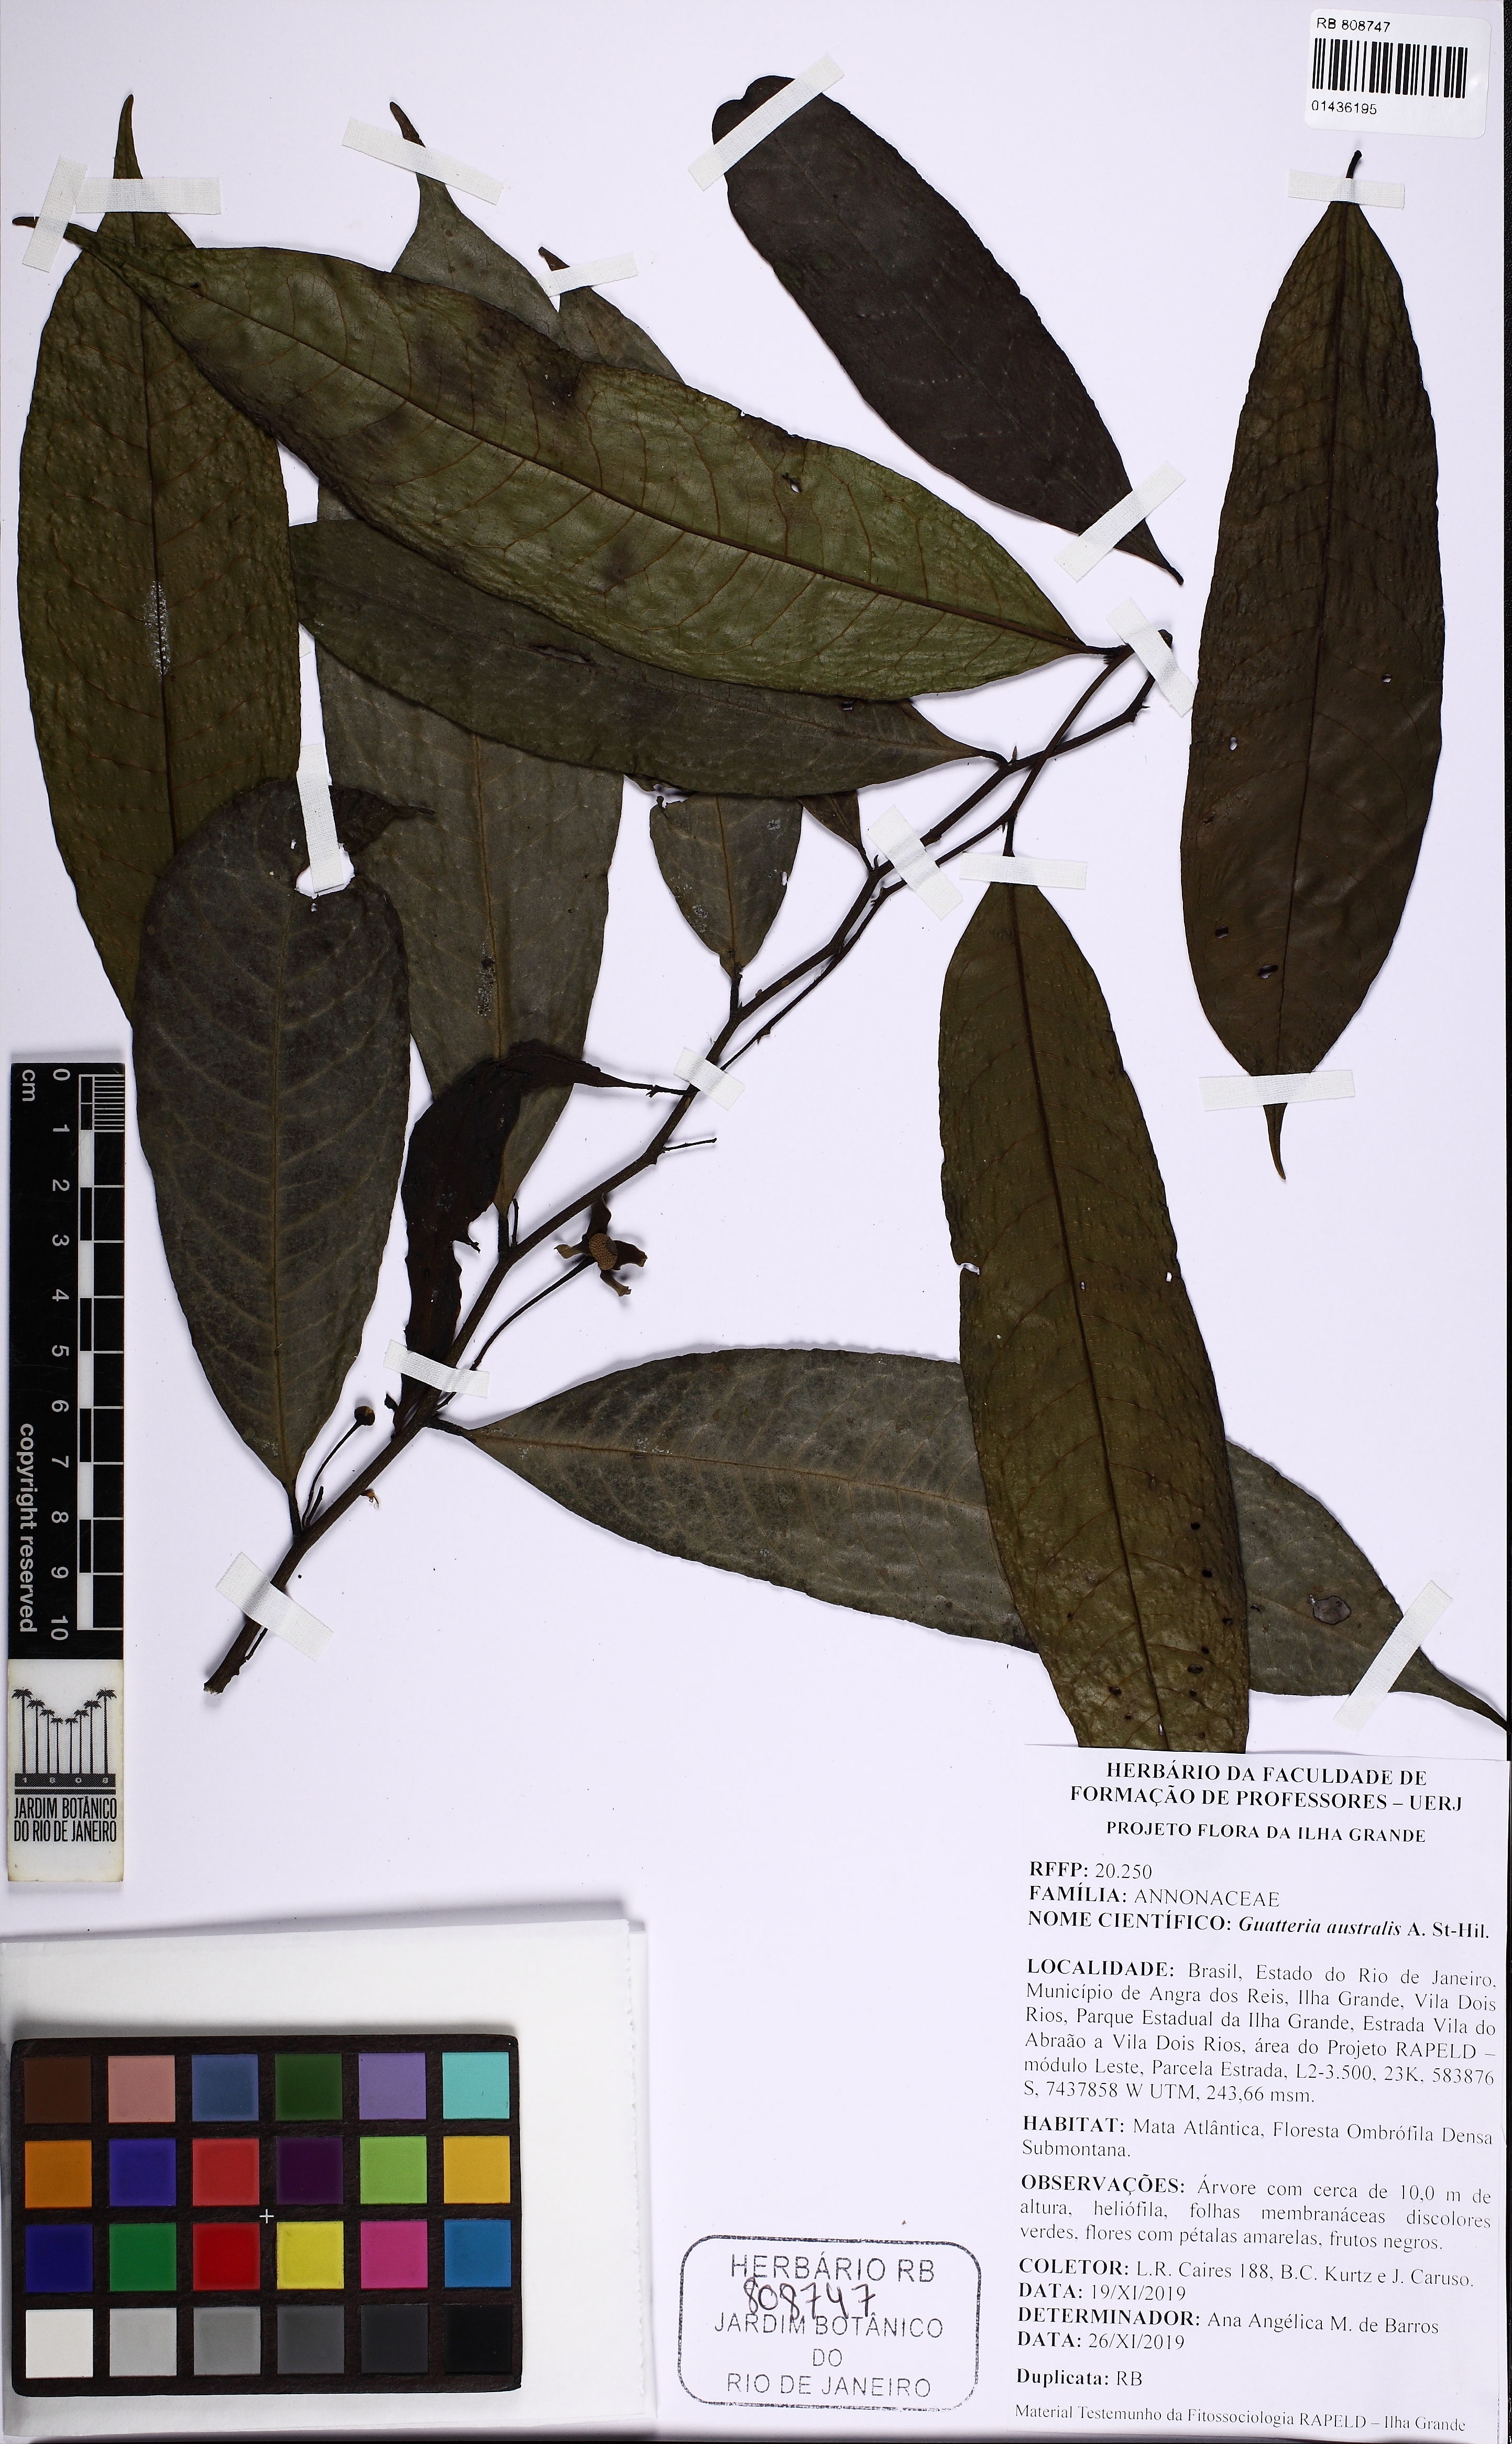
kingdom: Plantae
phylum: Tracheophyta
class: Magnoliopsida
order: Magnoliales
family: Annonaceae
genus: Guatteria
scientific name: Guatteria australis
